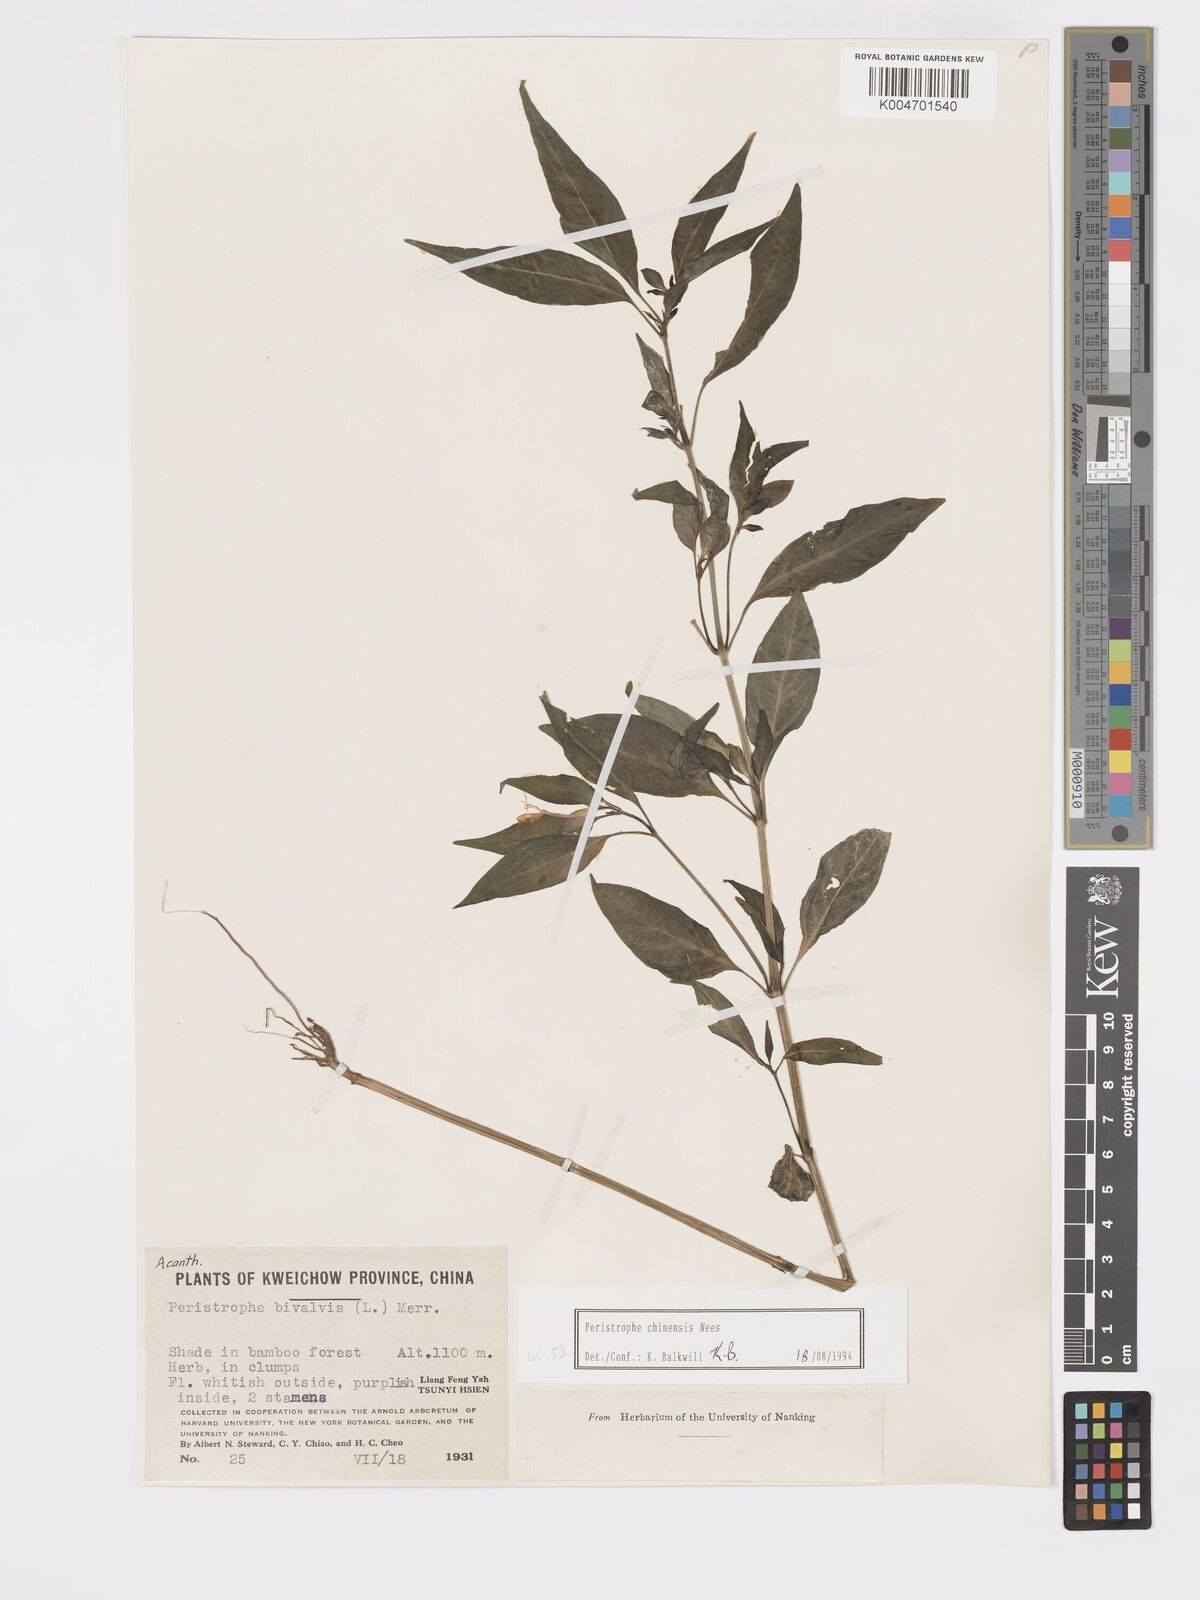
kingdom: Plantae
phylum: Tracheophyta
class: Magnoliopsida
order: Lamiales
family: Acanthaceae
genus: Dicliptera
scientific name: Dicliptera chinensis
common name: Chinese foldwing
